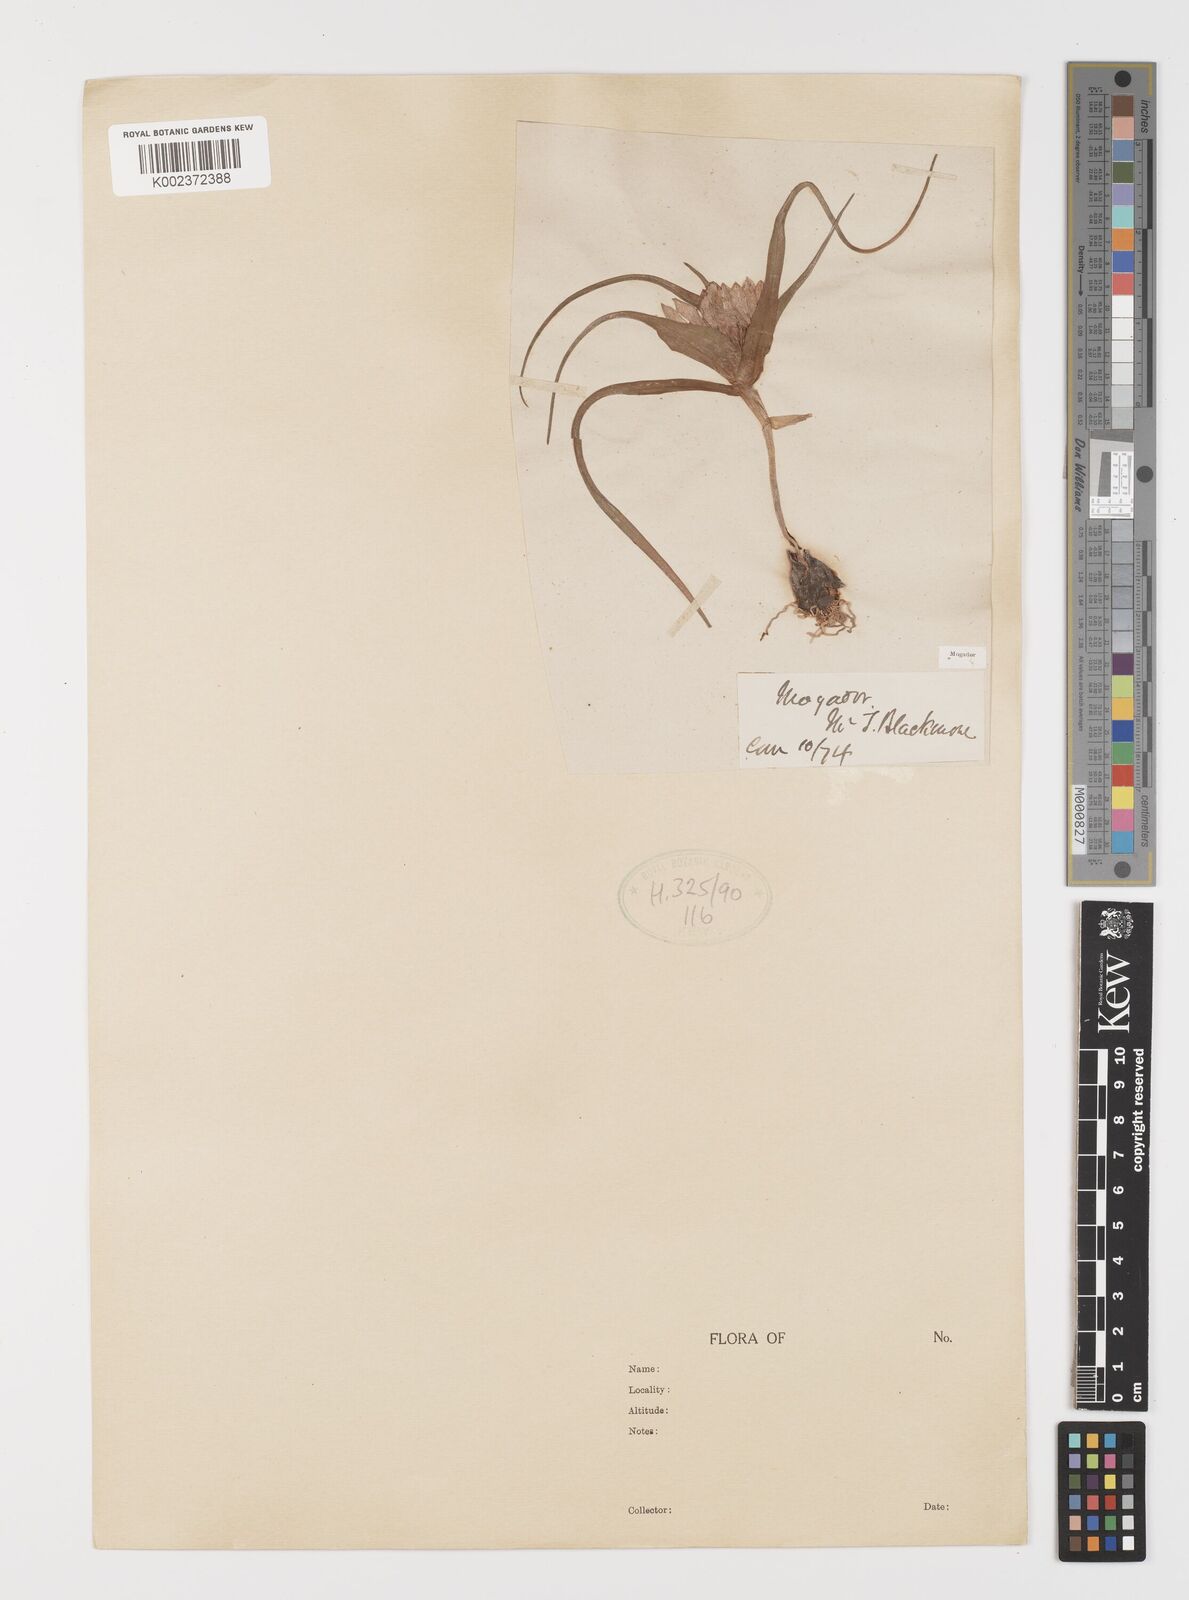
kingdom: Plantae
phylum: Tracheophyta
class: Liliopsida
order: Liliales
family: Colchicaceae
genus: Colchicum
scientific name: Colchicum gramineum
